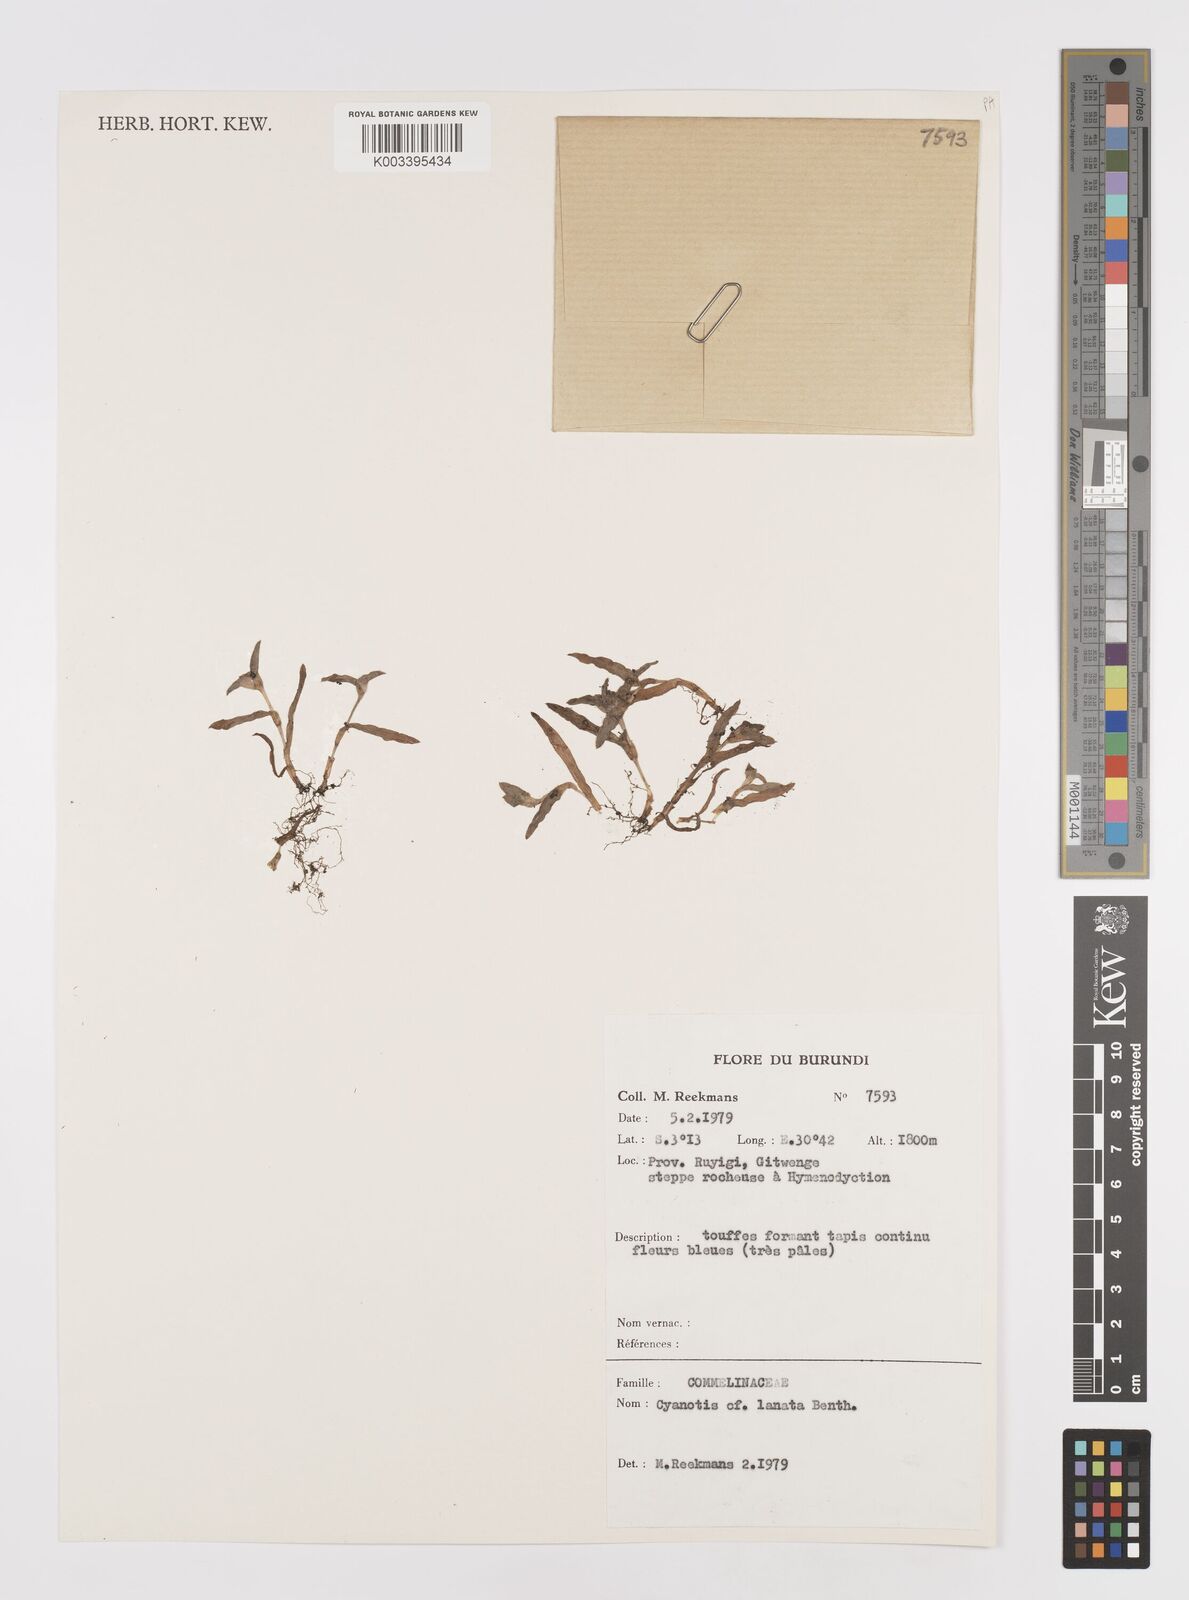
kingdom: Plantae
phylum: Tracheophyta
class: Liliopsida
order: Commelinales
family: Commelinaceae
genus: Cyanotis
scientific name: Cyanotis lanata
